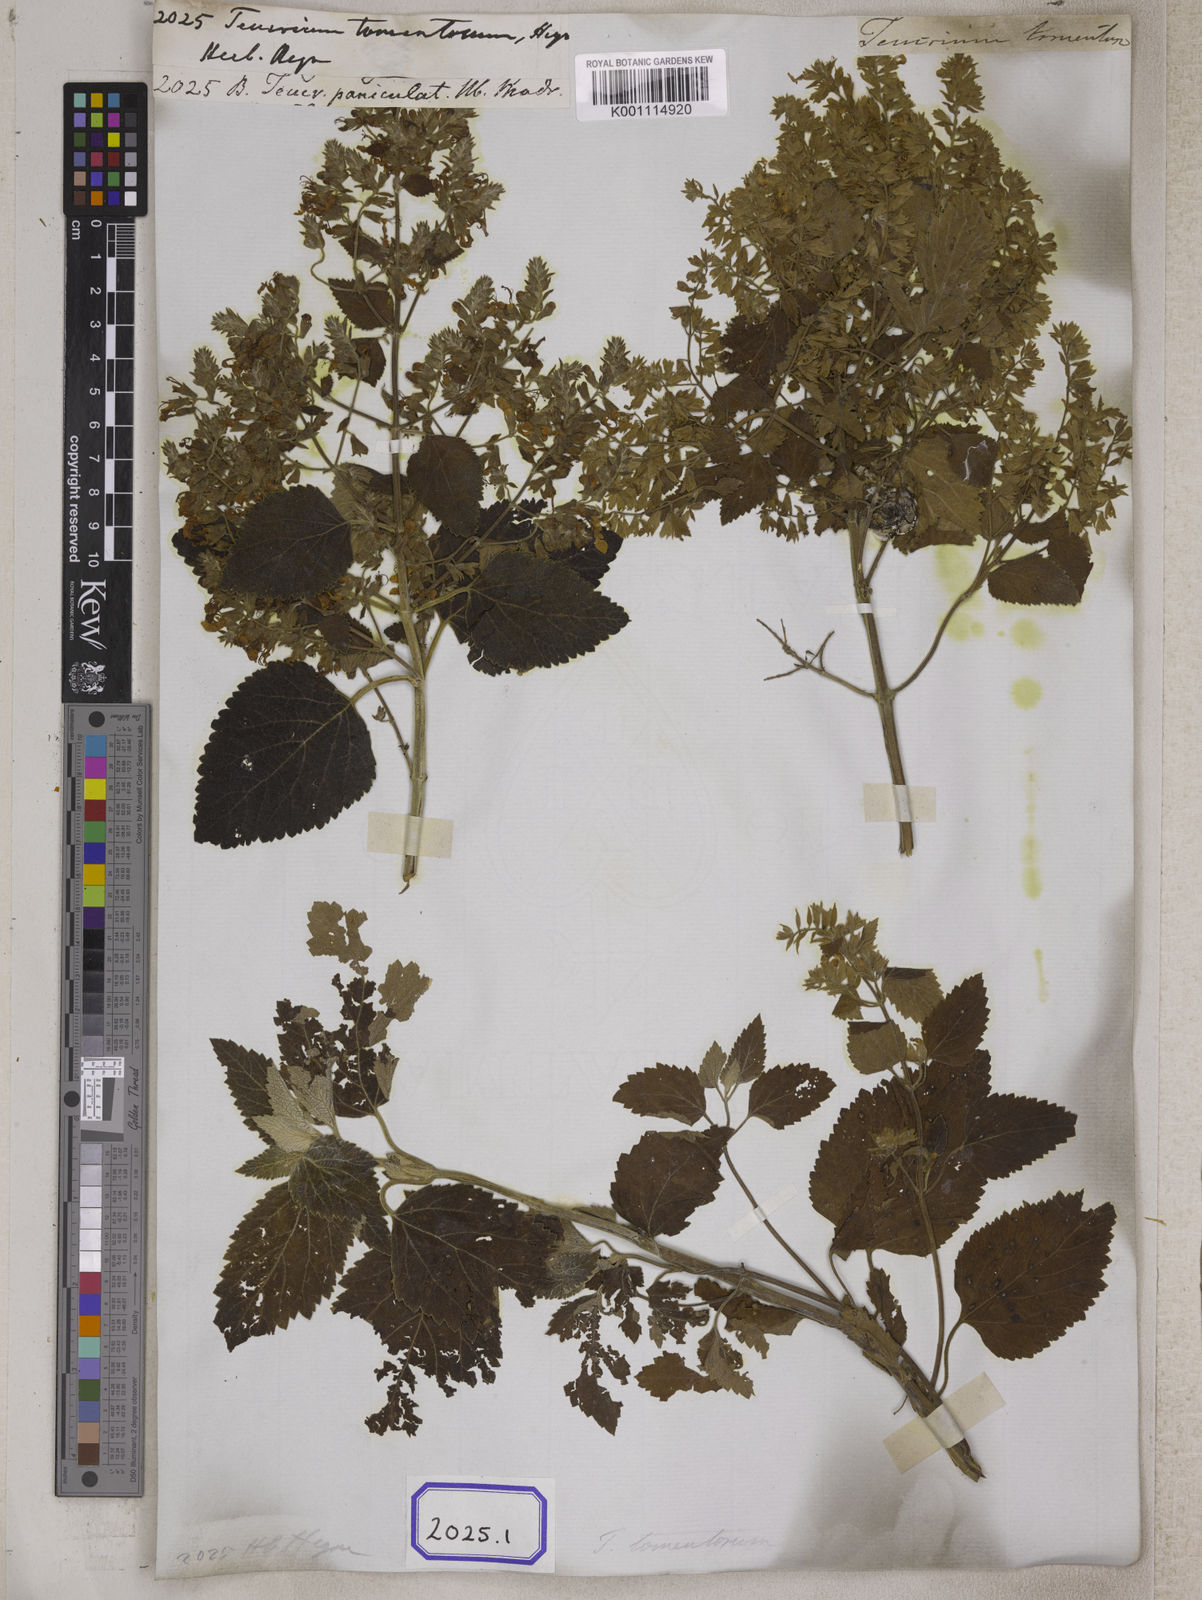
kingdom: Plantae
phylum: Tracheophyta
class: Magnoliopsida
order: Lamiales
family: Lamiaceae
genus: Teucrium
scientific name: Teucrium
